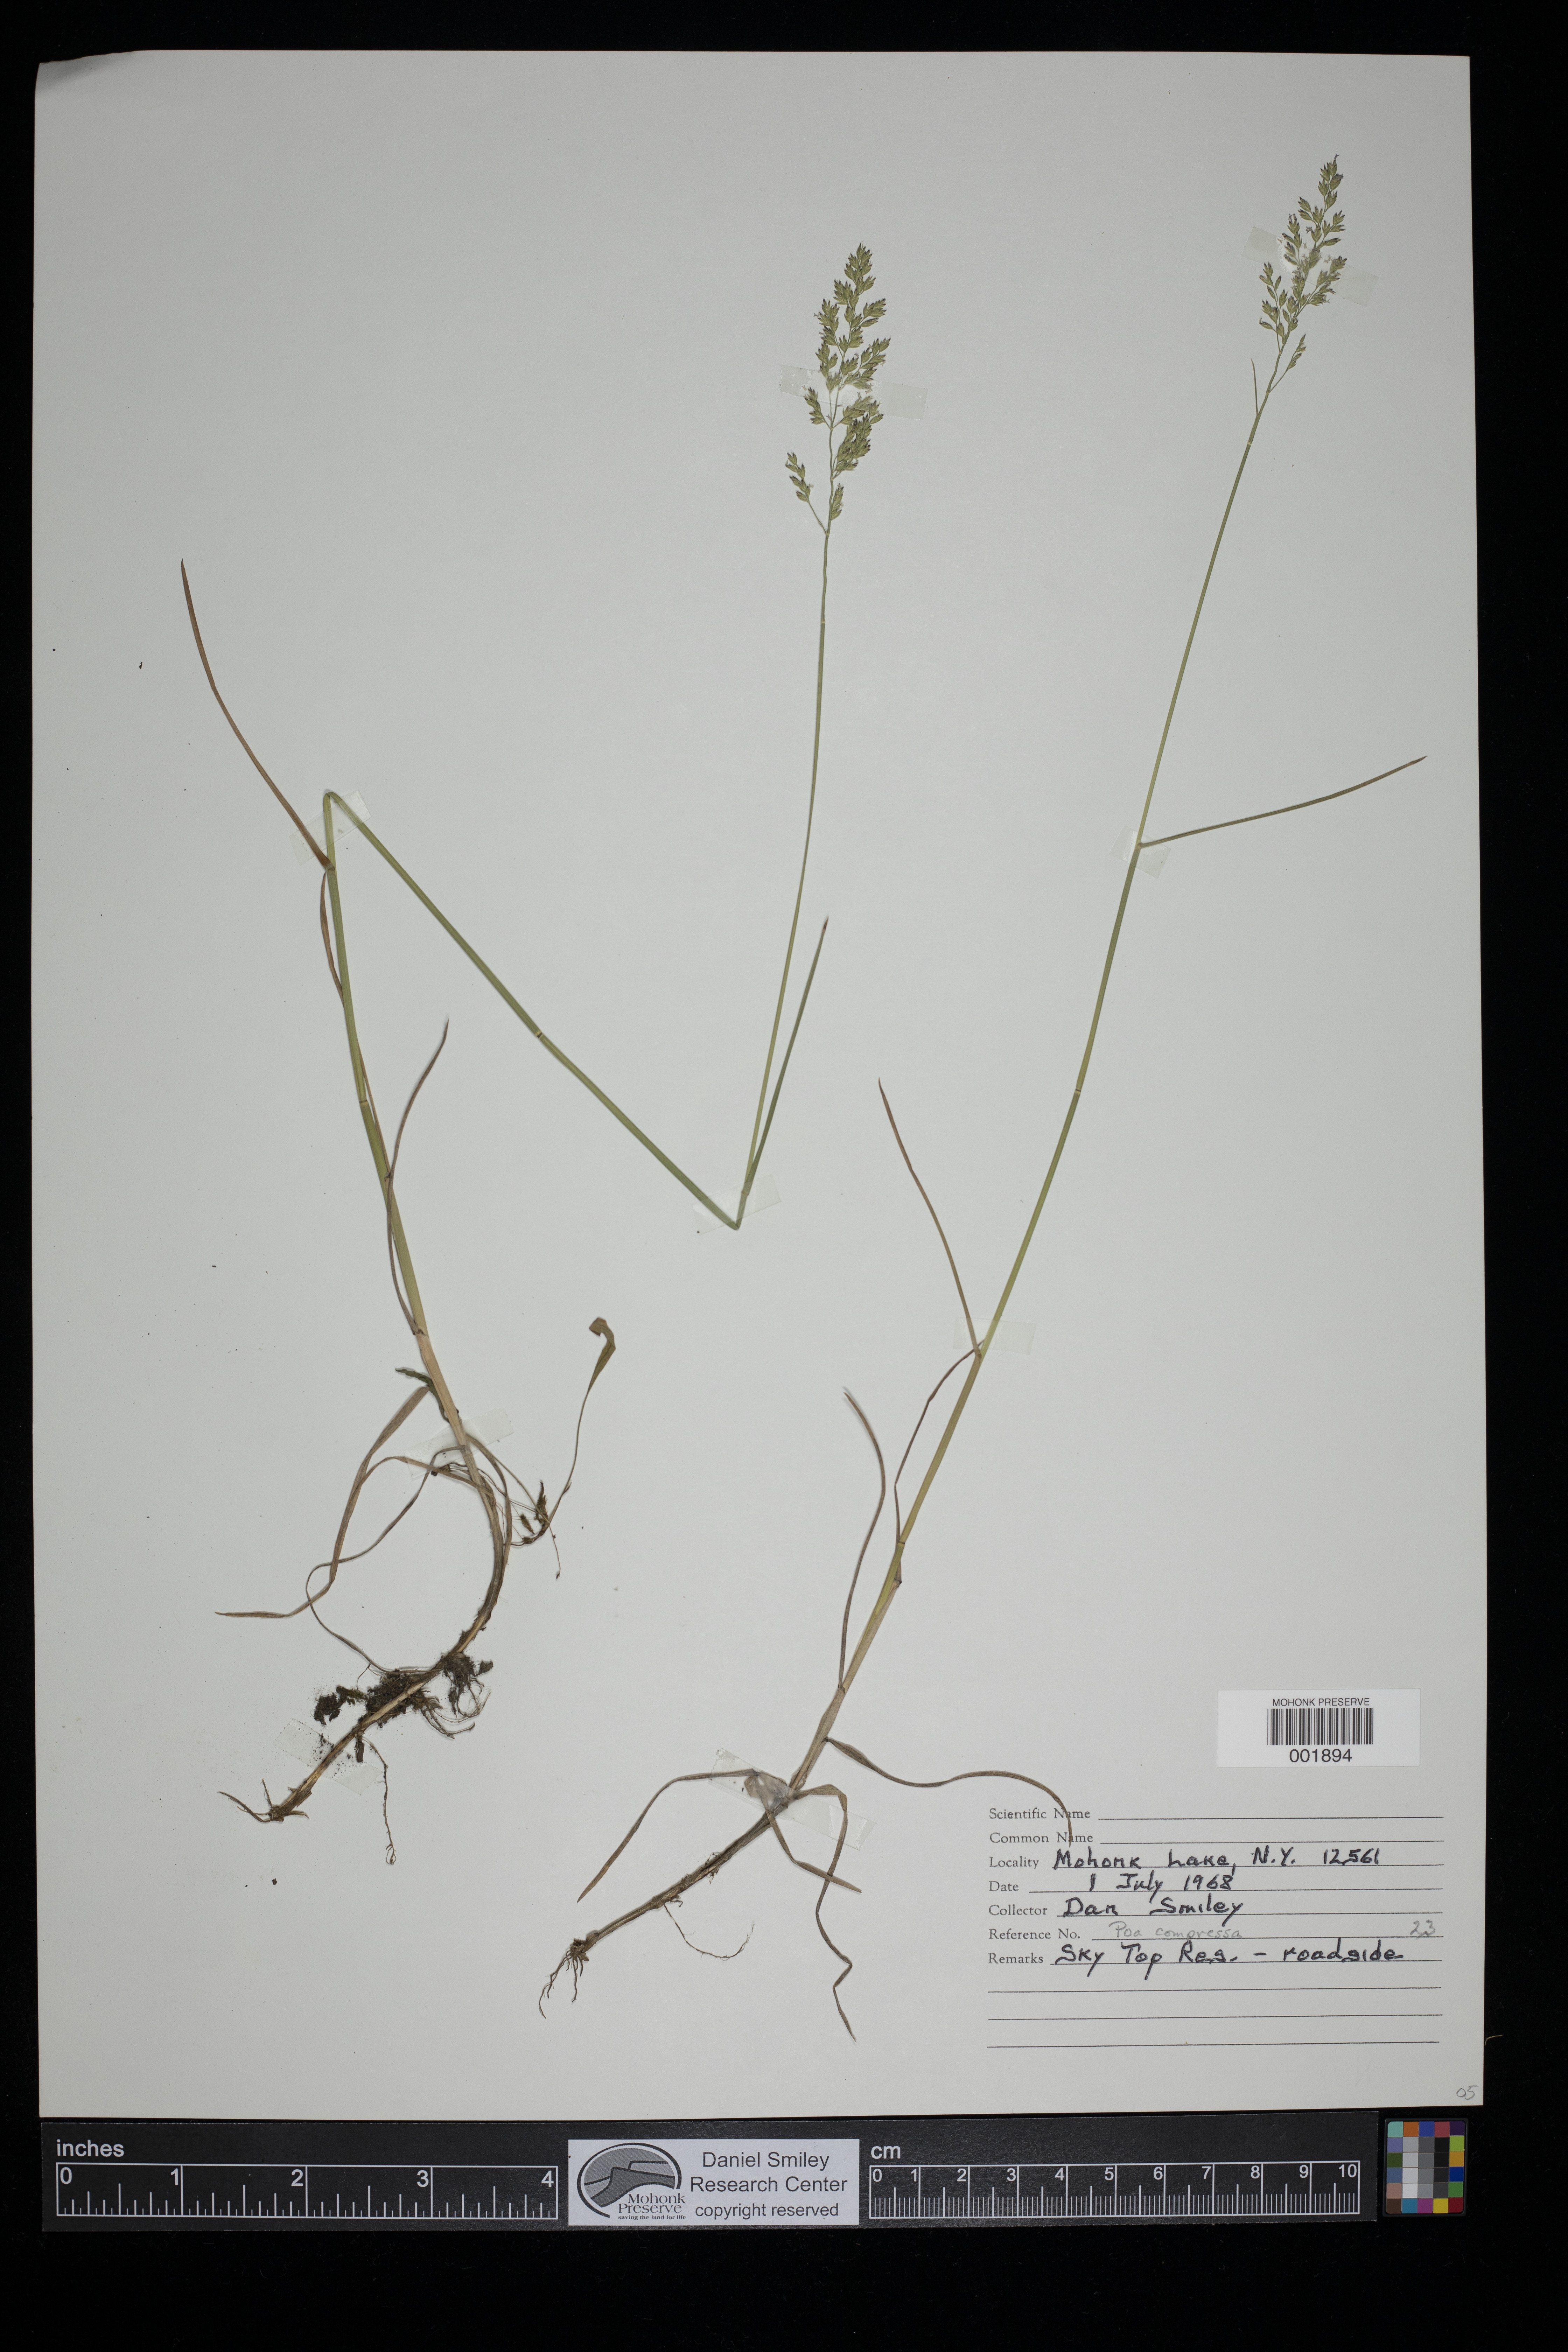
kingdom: Plantae
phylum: Tracheophyta
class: Liliopsida
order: Poales
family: Poaceae
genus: Poa
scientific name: Poa compressa
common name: Canada bluegrass
